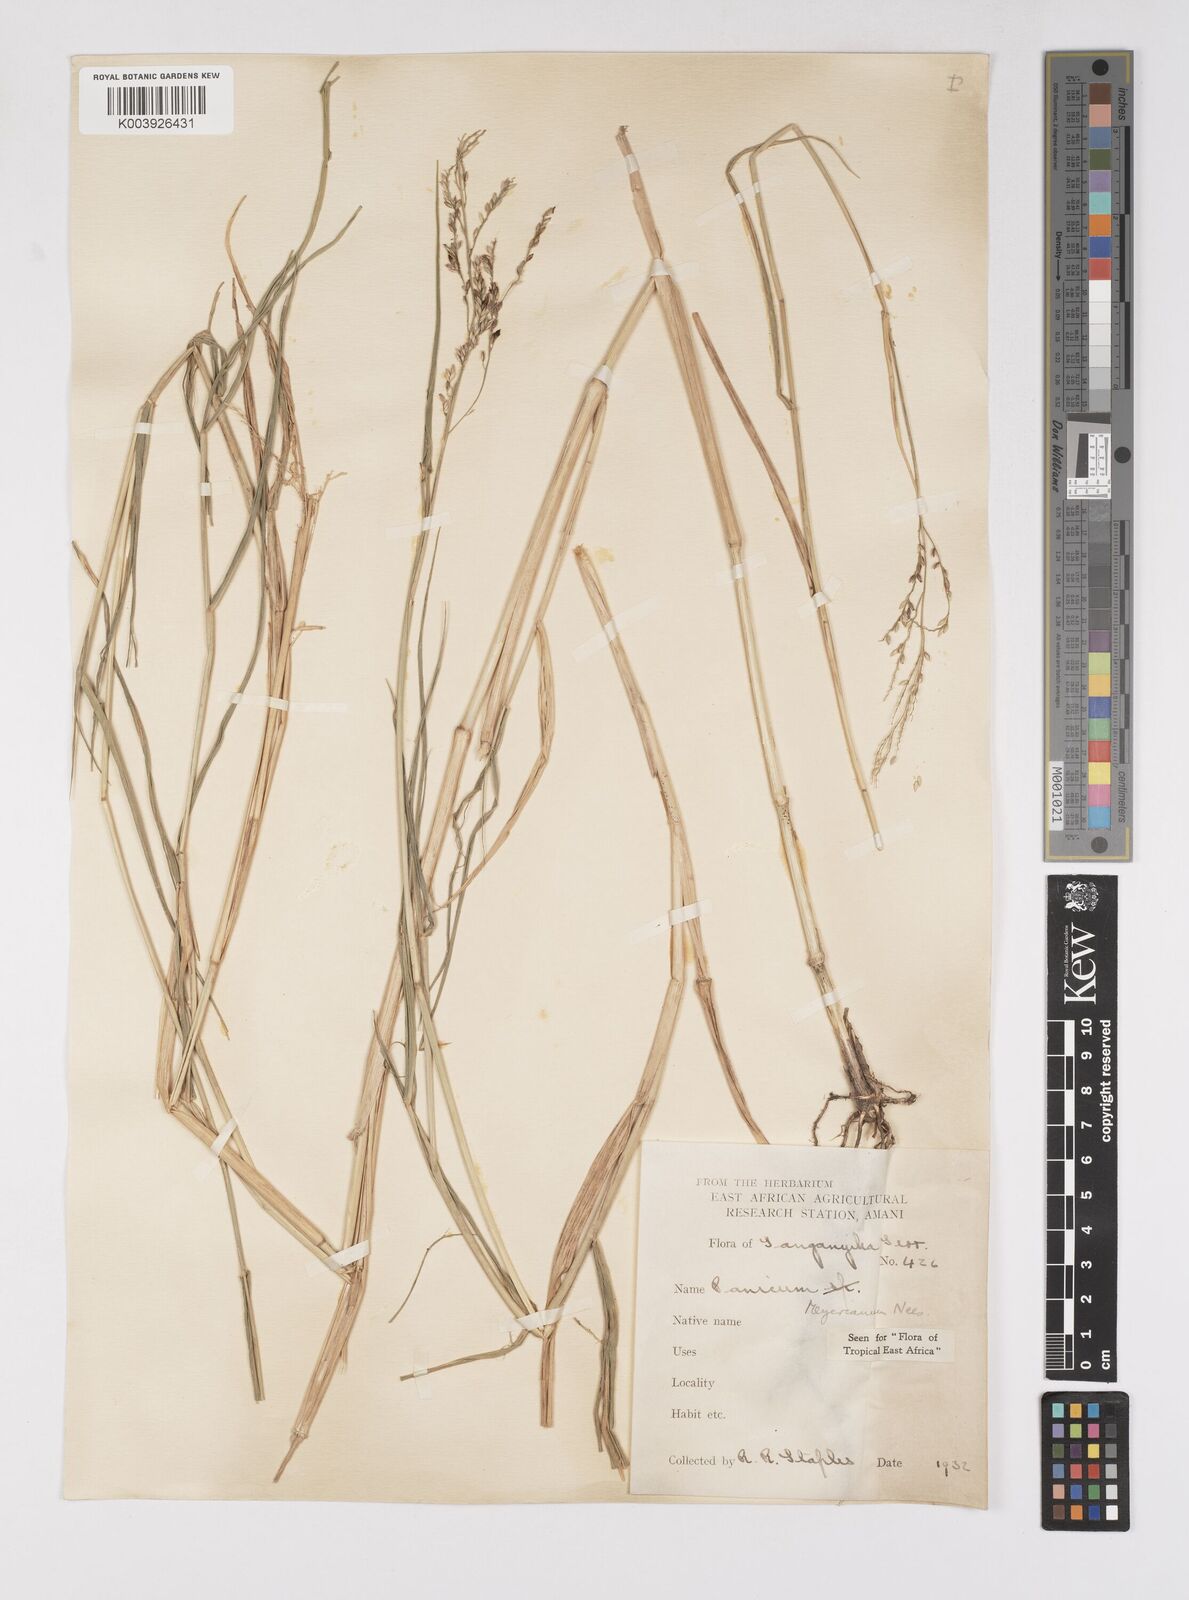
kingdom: Plantae
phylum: Tracheophyta
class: Liliopsida
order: Poales
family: Poaceae
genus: Eriochloa
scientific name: Eriochloa meyeriana
